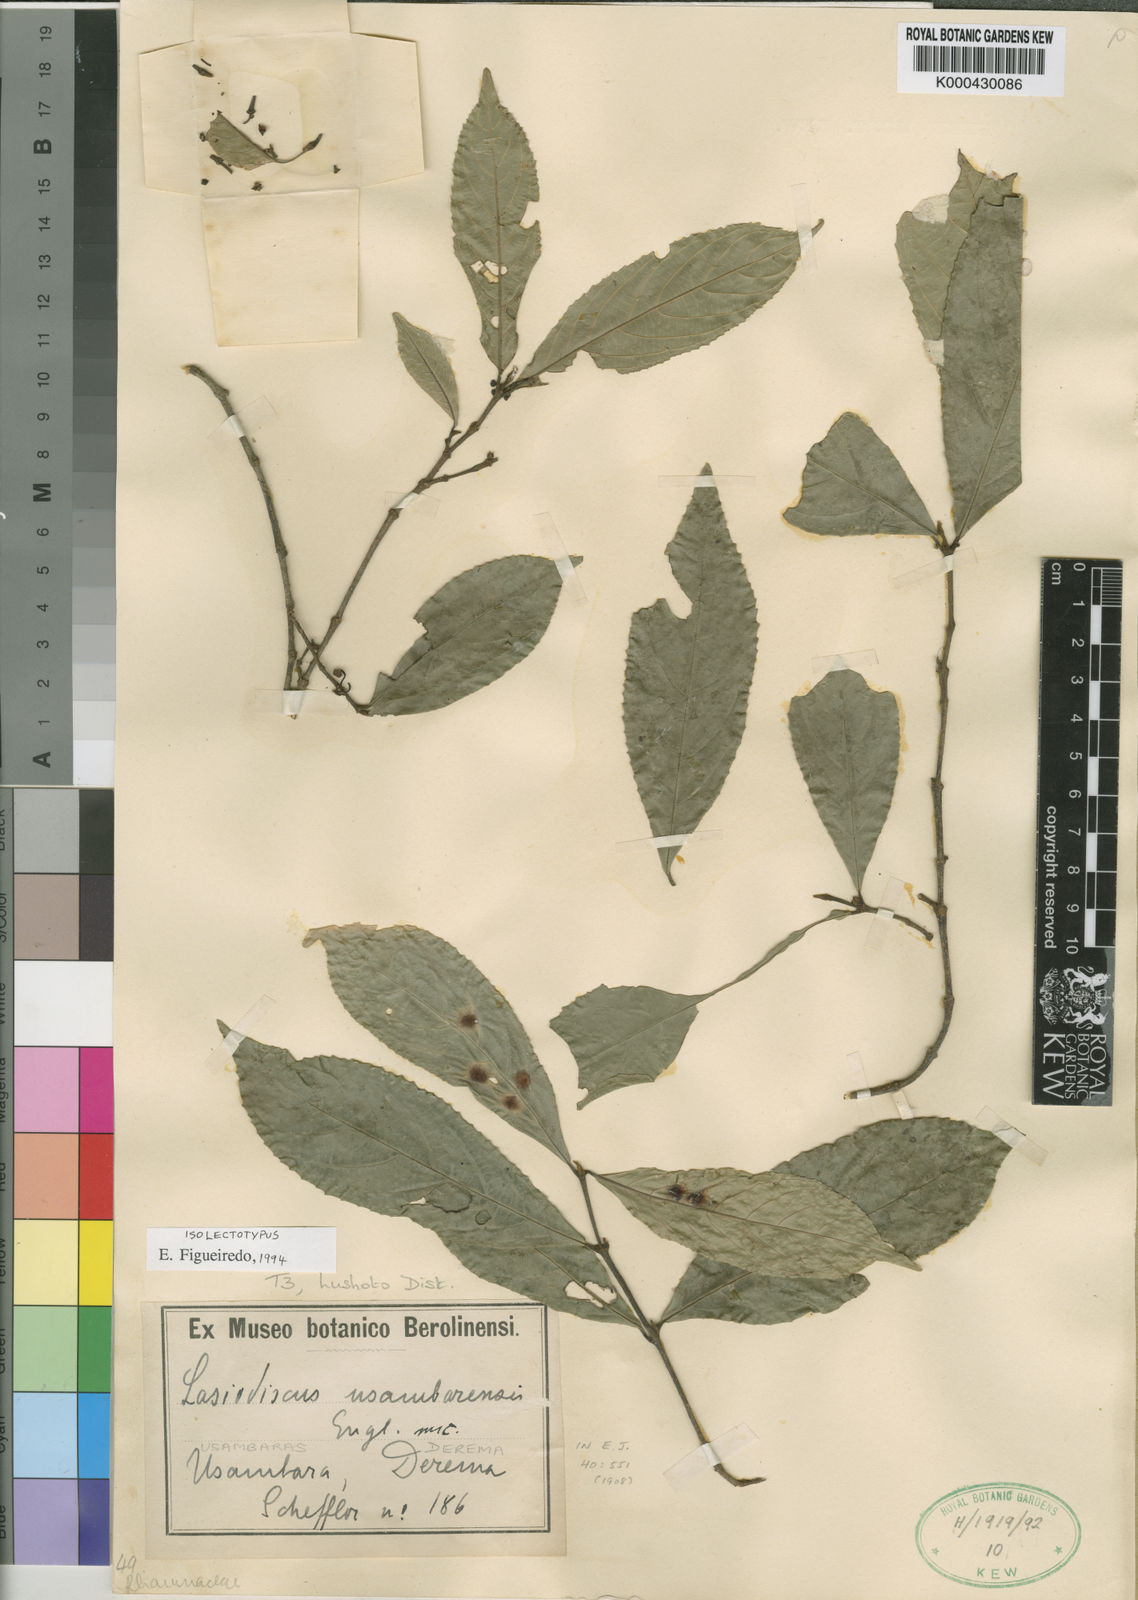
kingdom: Plantae
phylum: Tracheophyta
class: Magnoliopsida
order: Rosales
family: Rhamnaceae
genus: Lasiodiscus
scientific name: Lasiodiscus usambarensis
